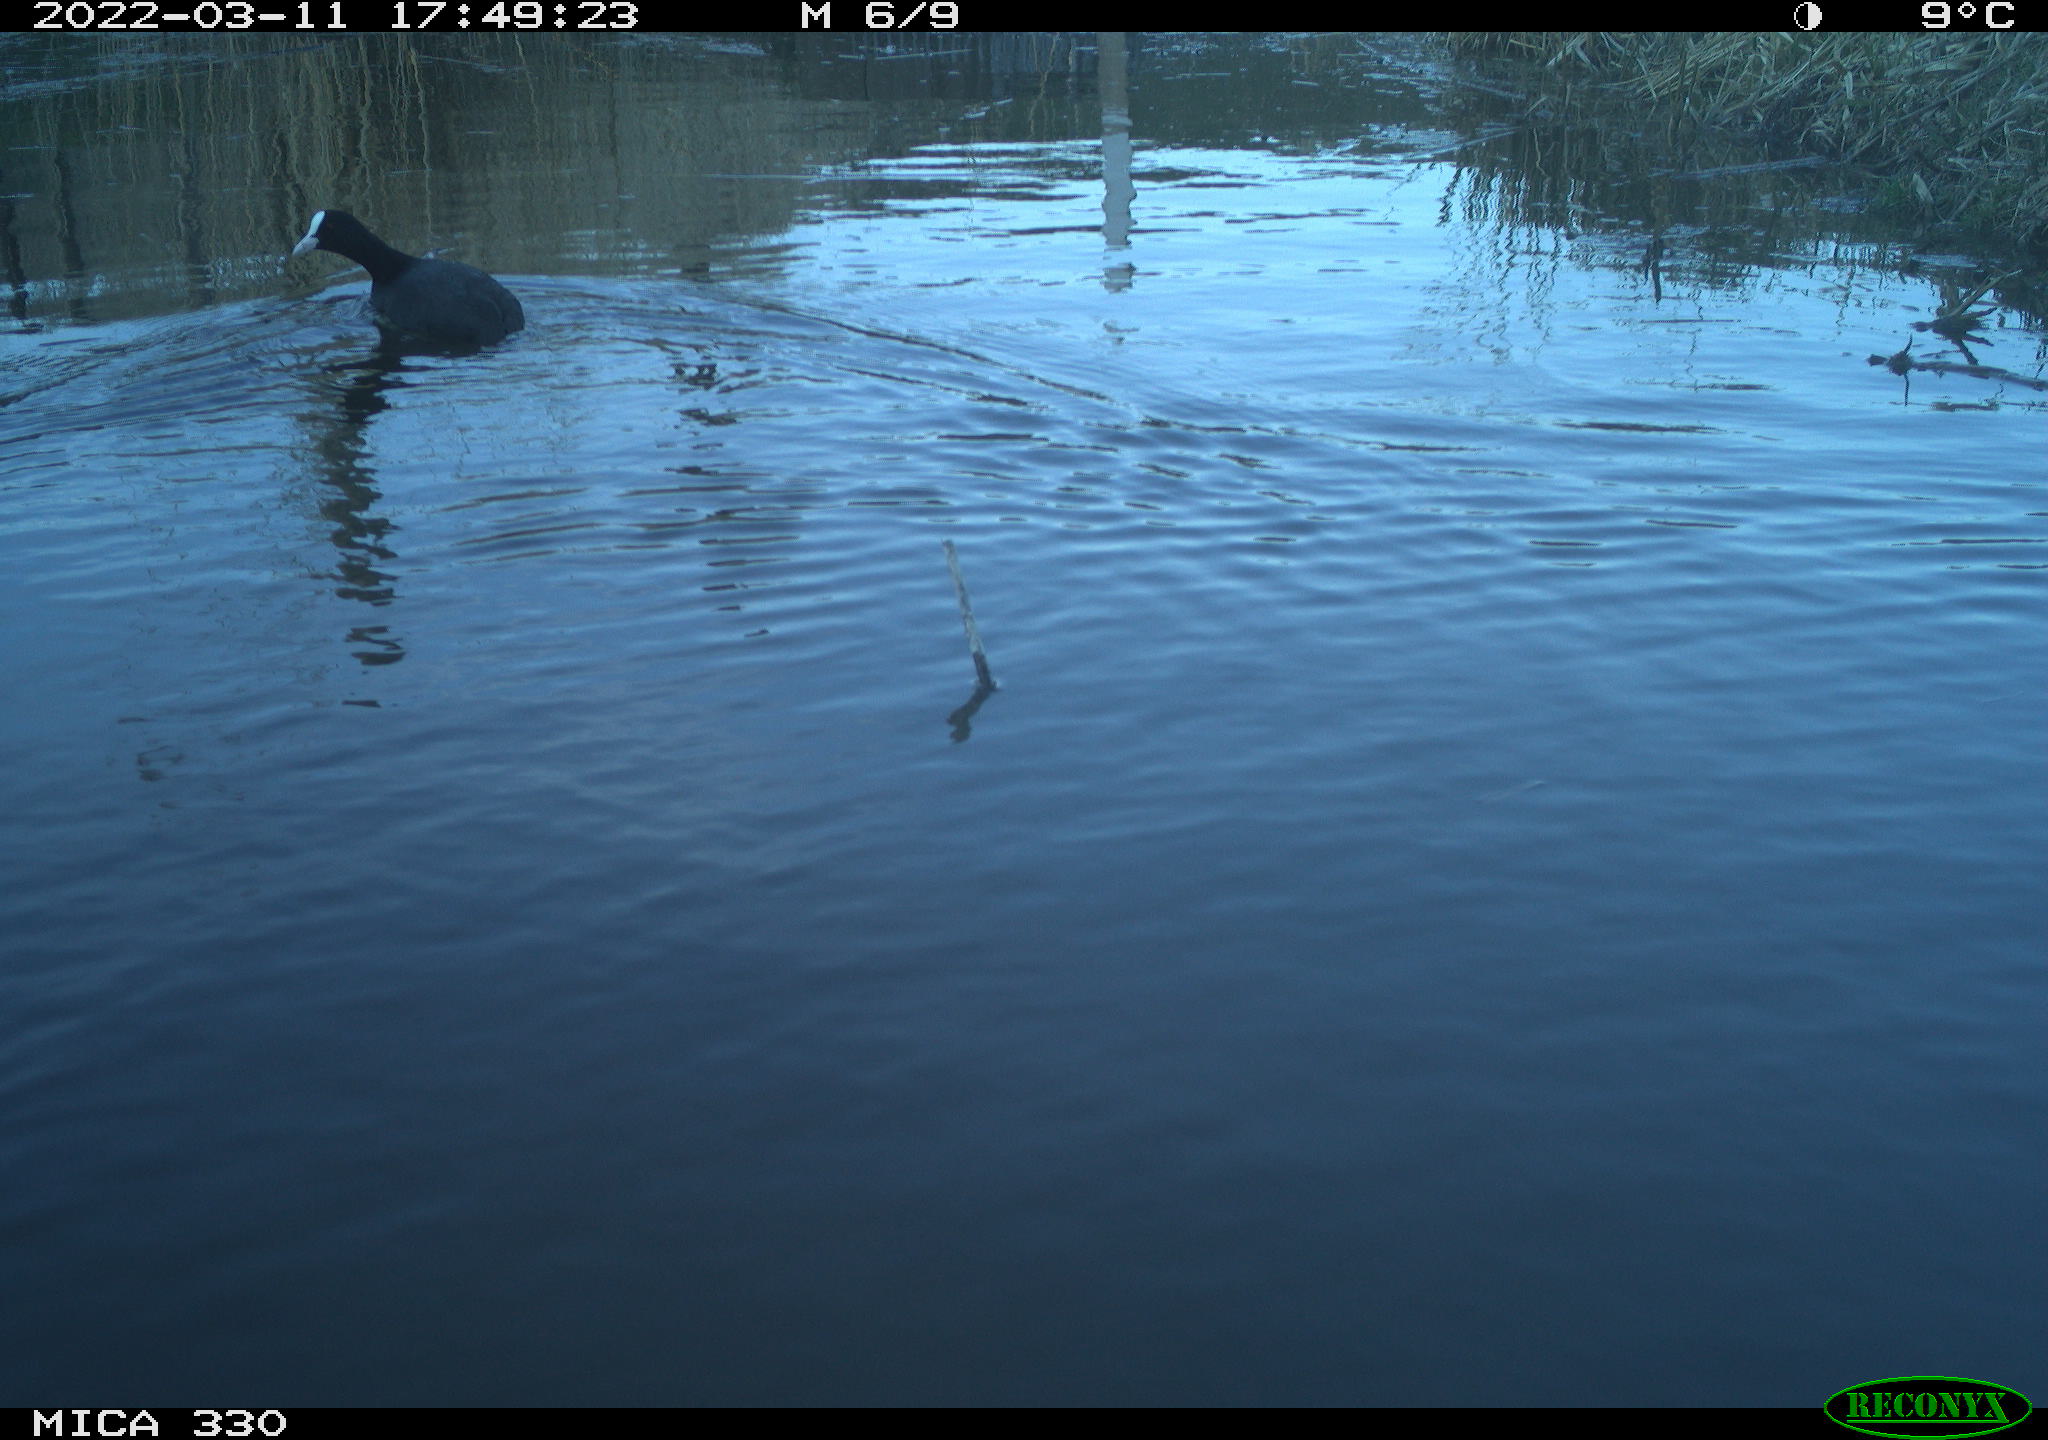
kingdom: Animalia
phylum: Chordata
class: Aves
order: Gruiformes
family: Rallidae
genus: Fulica
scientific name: Fulica atra
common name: Eurasian coot
